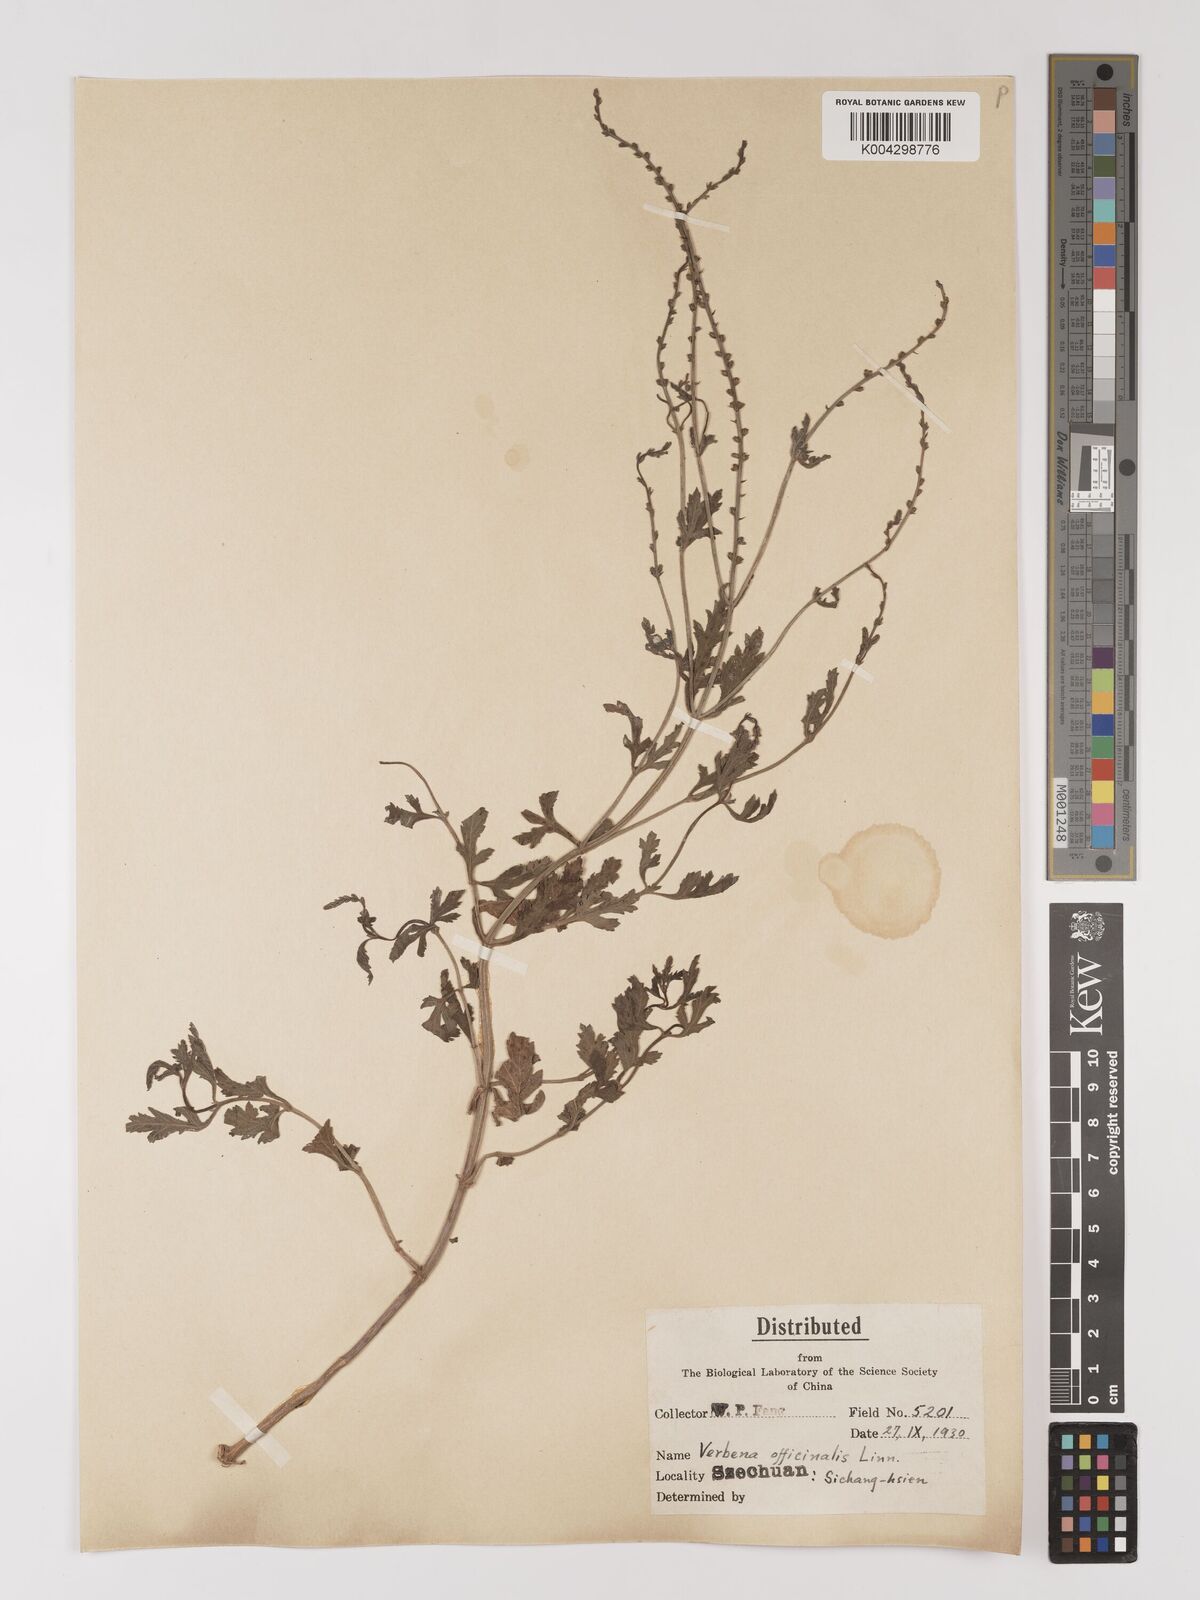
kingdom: Plantae
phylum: Tracheophyta
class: Magnoliopsida
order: Lamiales
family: Verbenaceae
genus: Verbena
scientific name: Verbena officinalis
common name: Vervain
